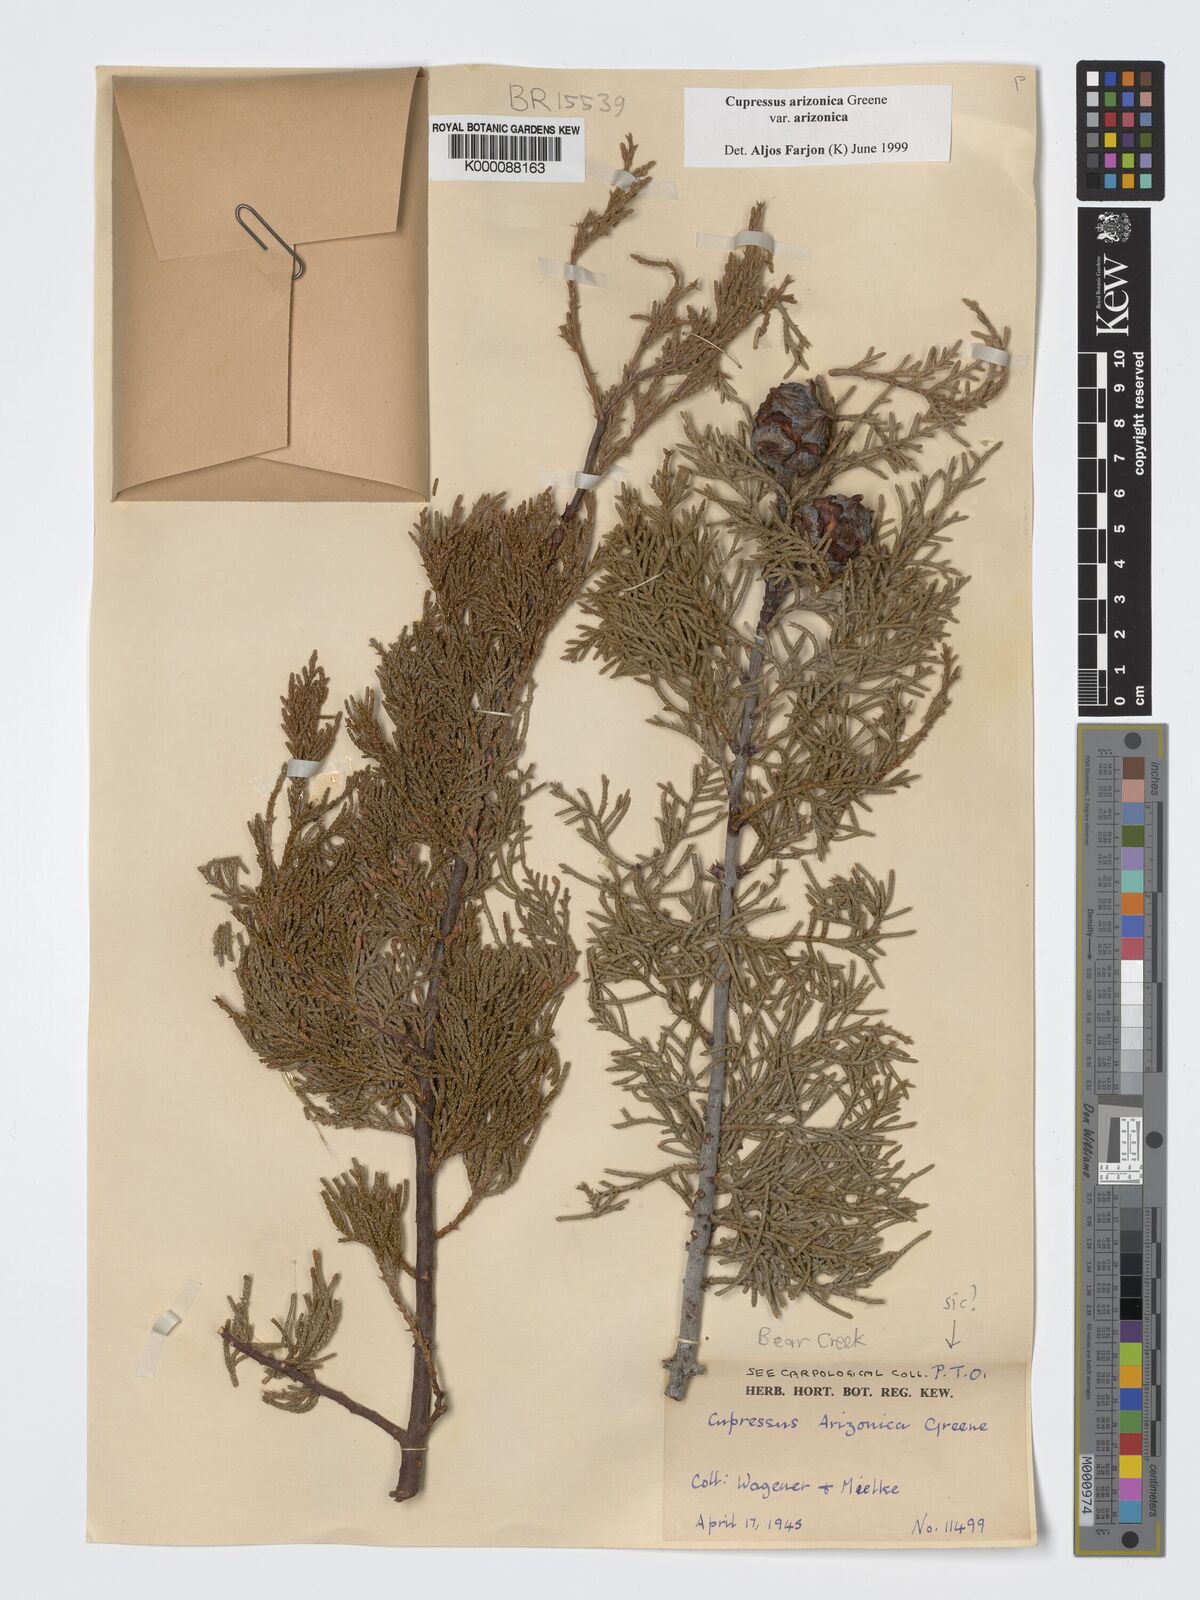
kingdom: Plantae
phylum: Tracheophyta
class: Pinopsida
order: Pinales
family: Cupressaceae
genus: Cupressus
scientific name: Cupressus arizonica
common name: Arizona cypress
